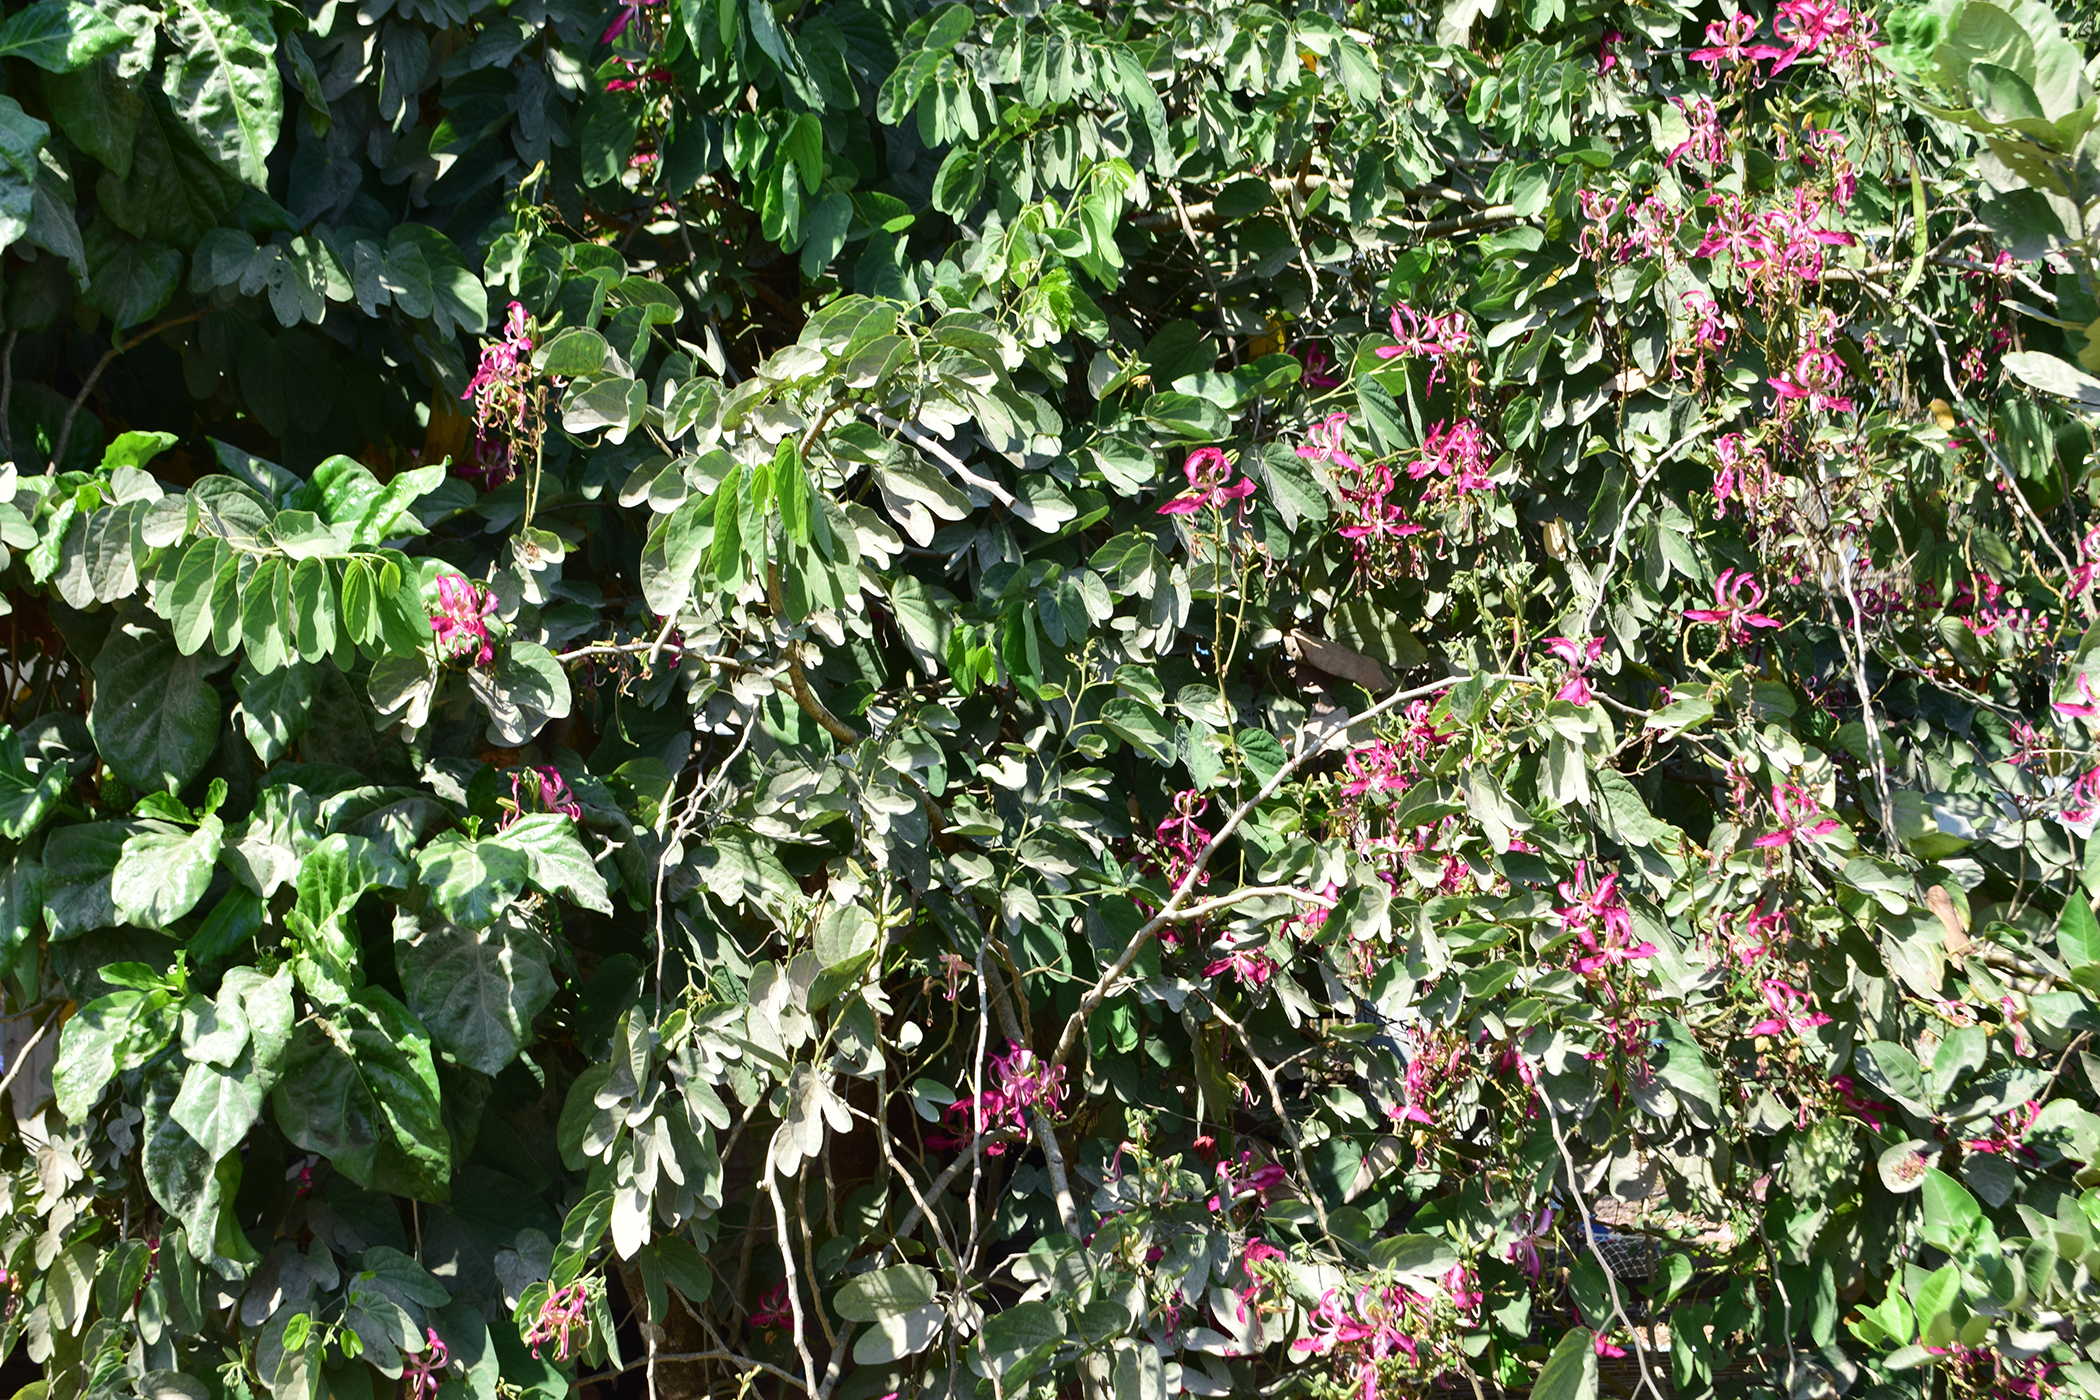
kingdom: Plantae
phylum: Tracheophyta
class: Magnoliopsida
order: Fabales
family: Fabaceae
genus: Bauhinia
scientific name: Bauhinia purpurea
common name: Butterfly-tree
